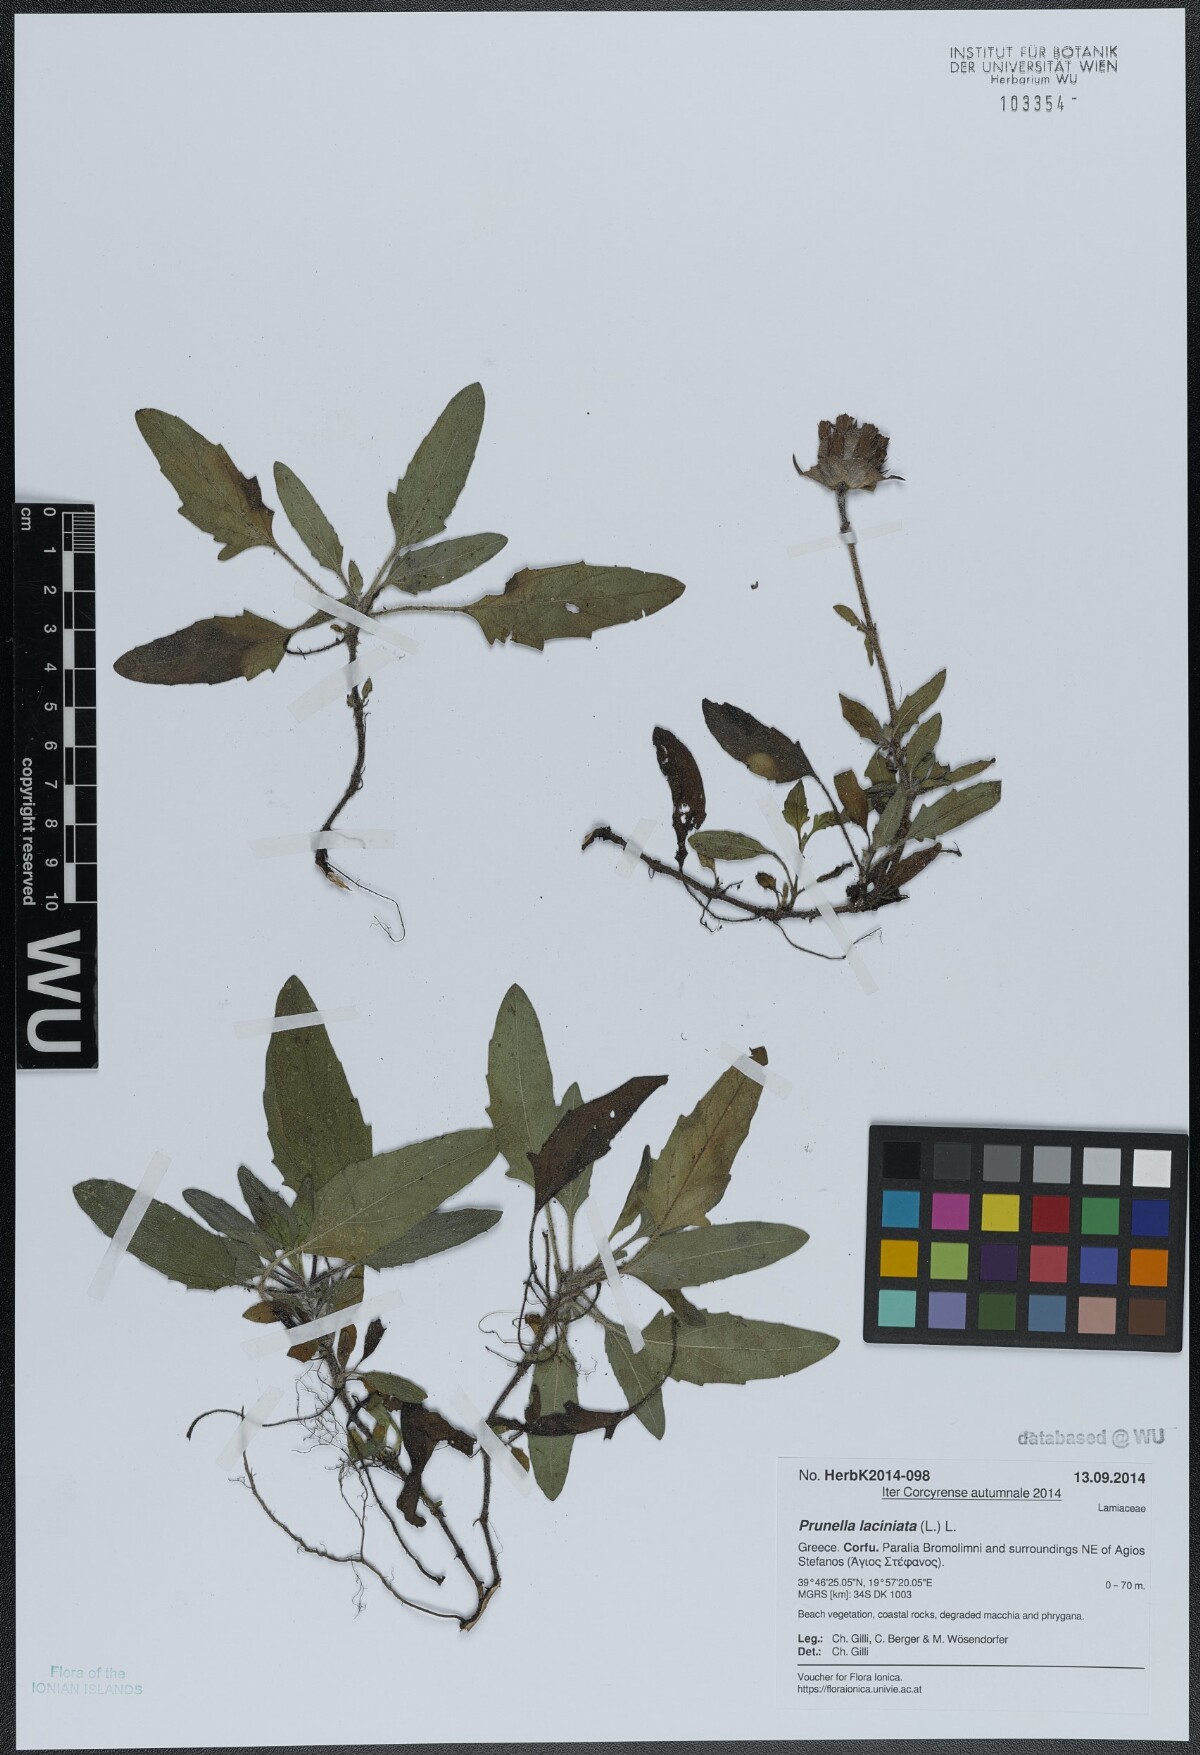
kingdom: Plantae
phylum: Tracheophyta
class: Magnoliopsida
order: Lamiales
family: Lamiaceae
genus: Prunella
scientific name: Prunella laciniata
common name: Cut-leaved selfheal
